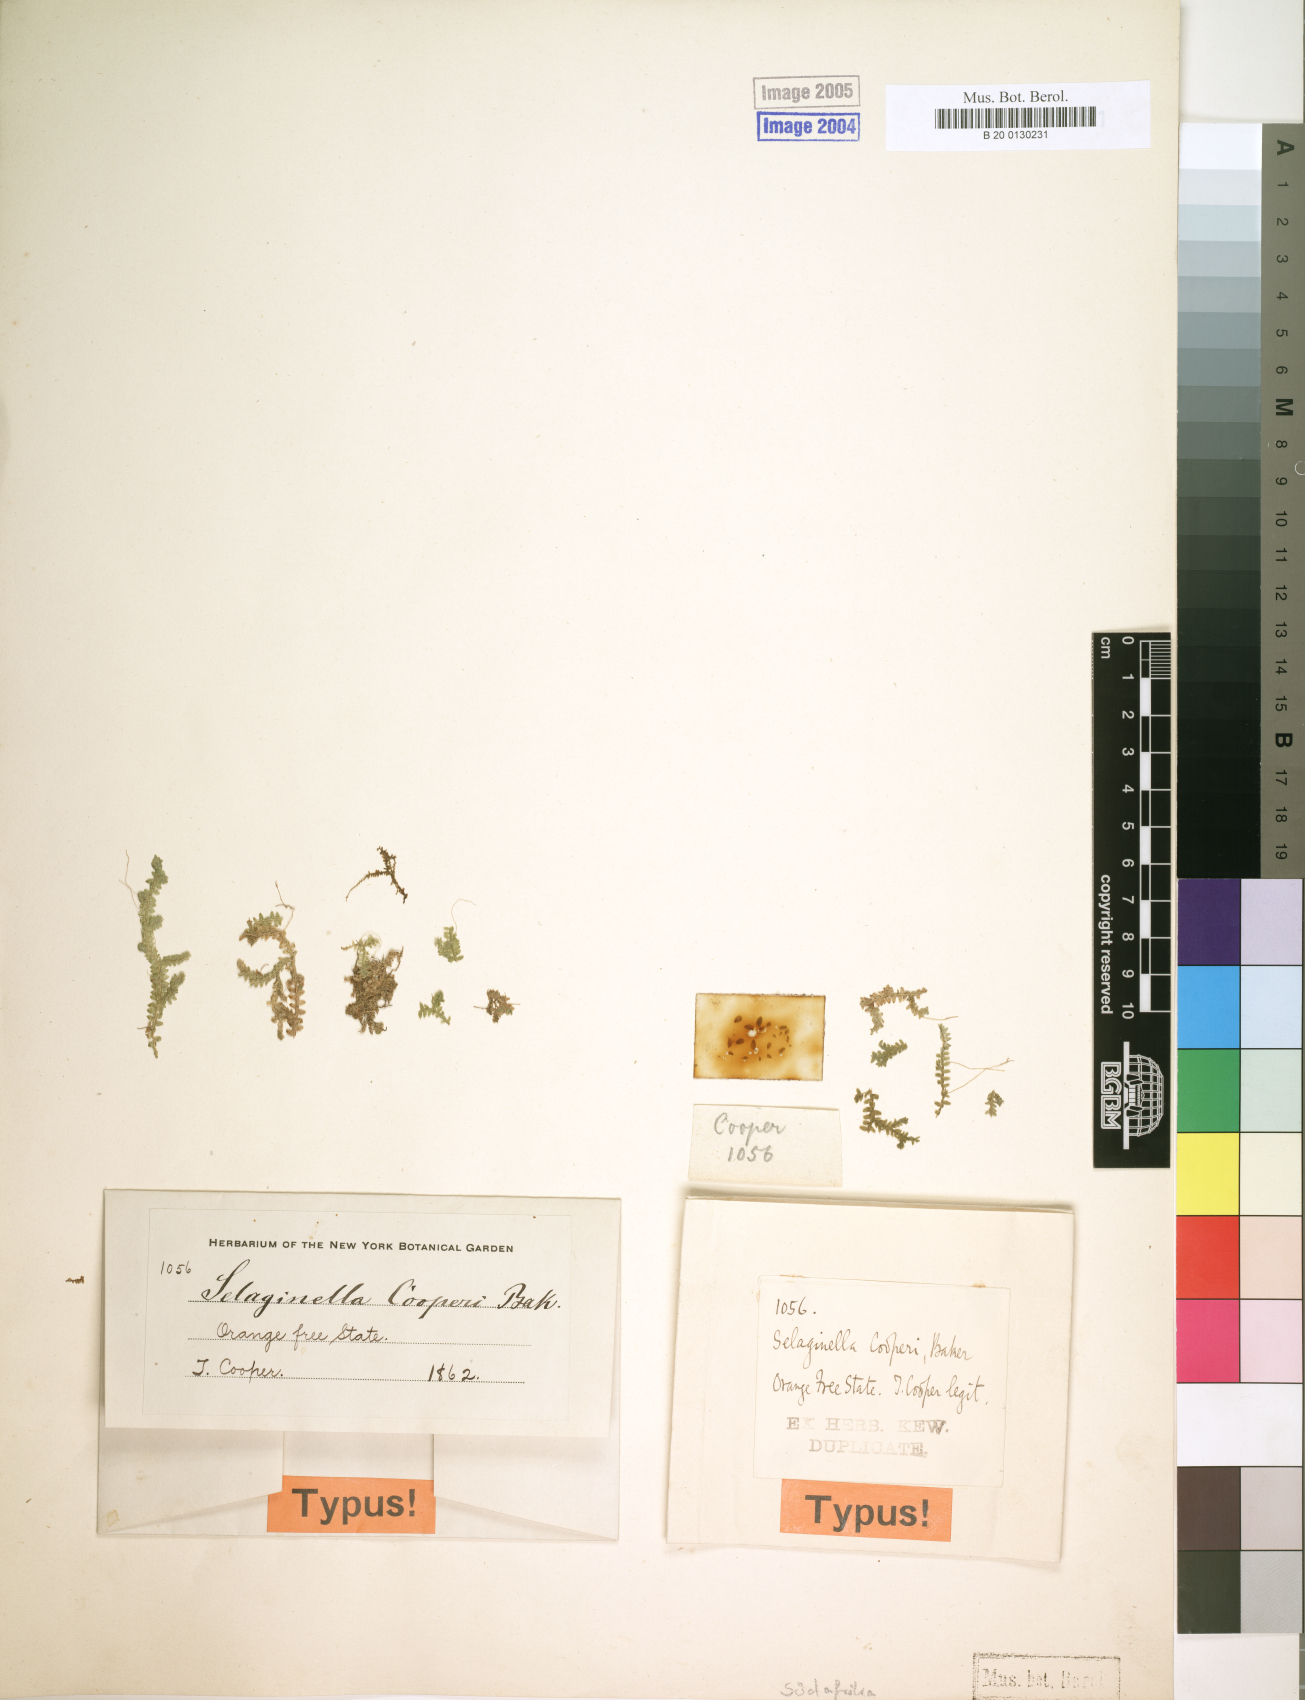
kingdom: Plantae
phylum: Tracheophyta
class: Lycopodiopsida
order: Selaginellales
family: Selaginellaceae
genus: Selaginella
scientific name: Selaginella mittenii
